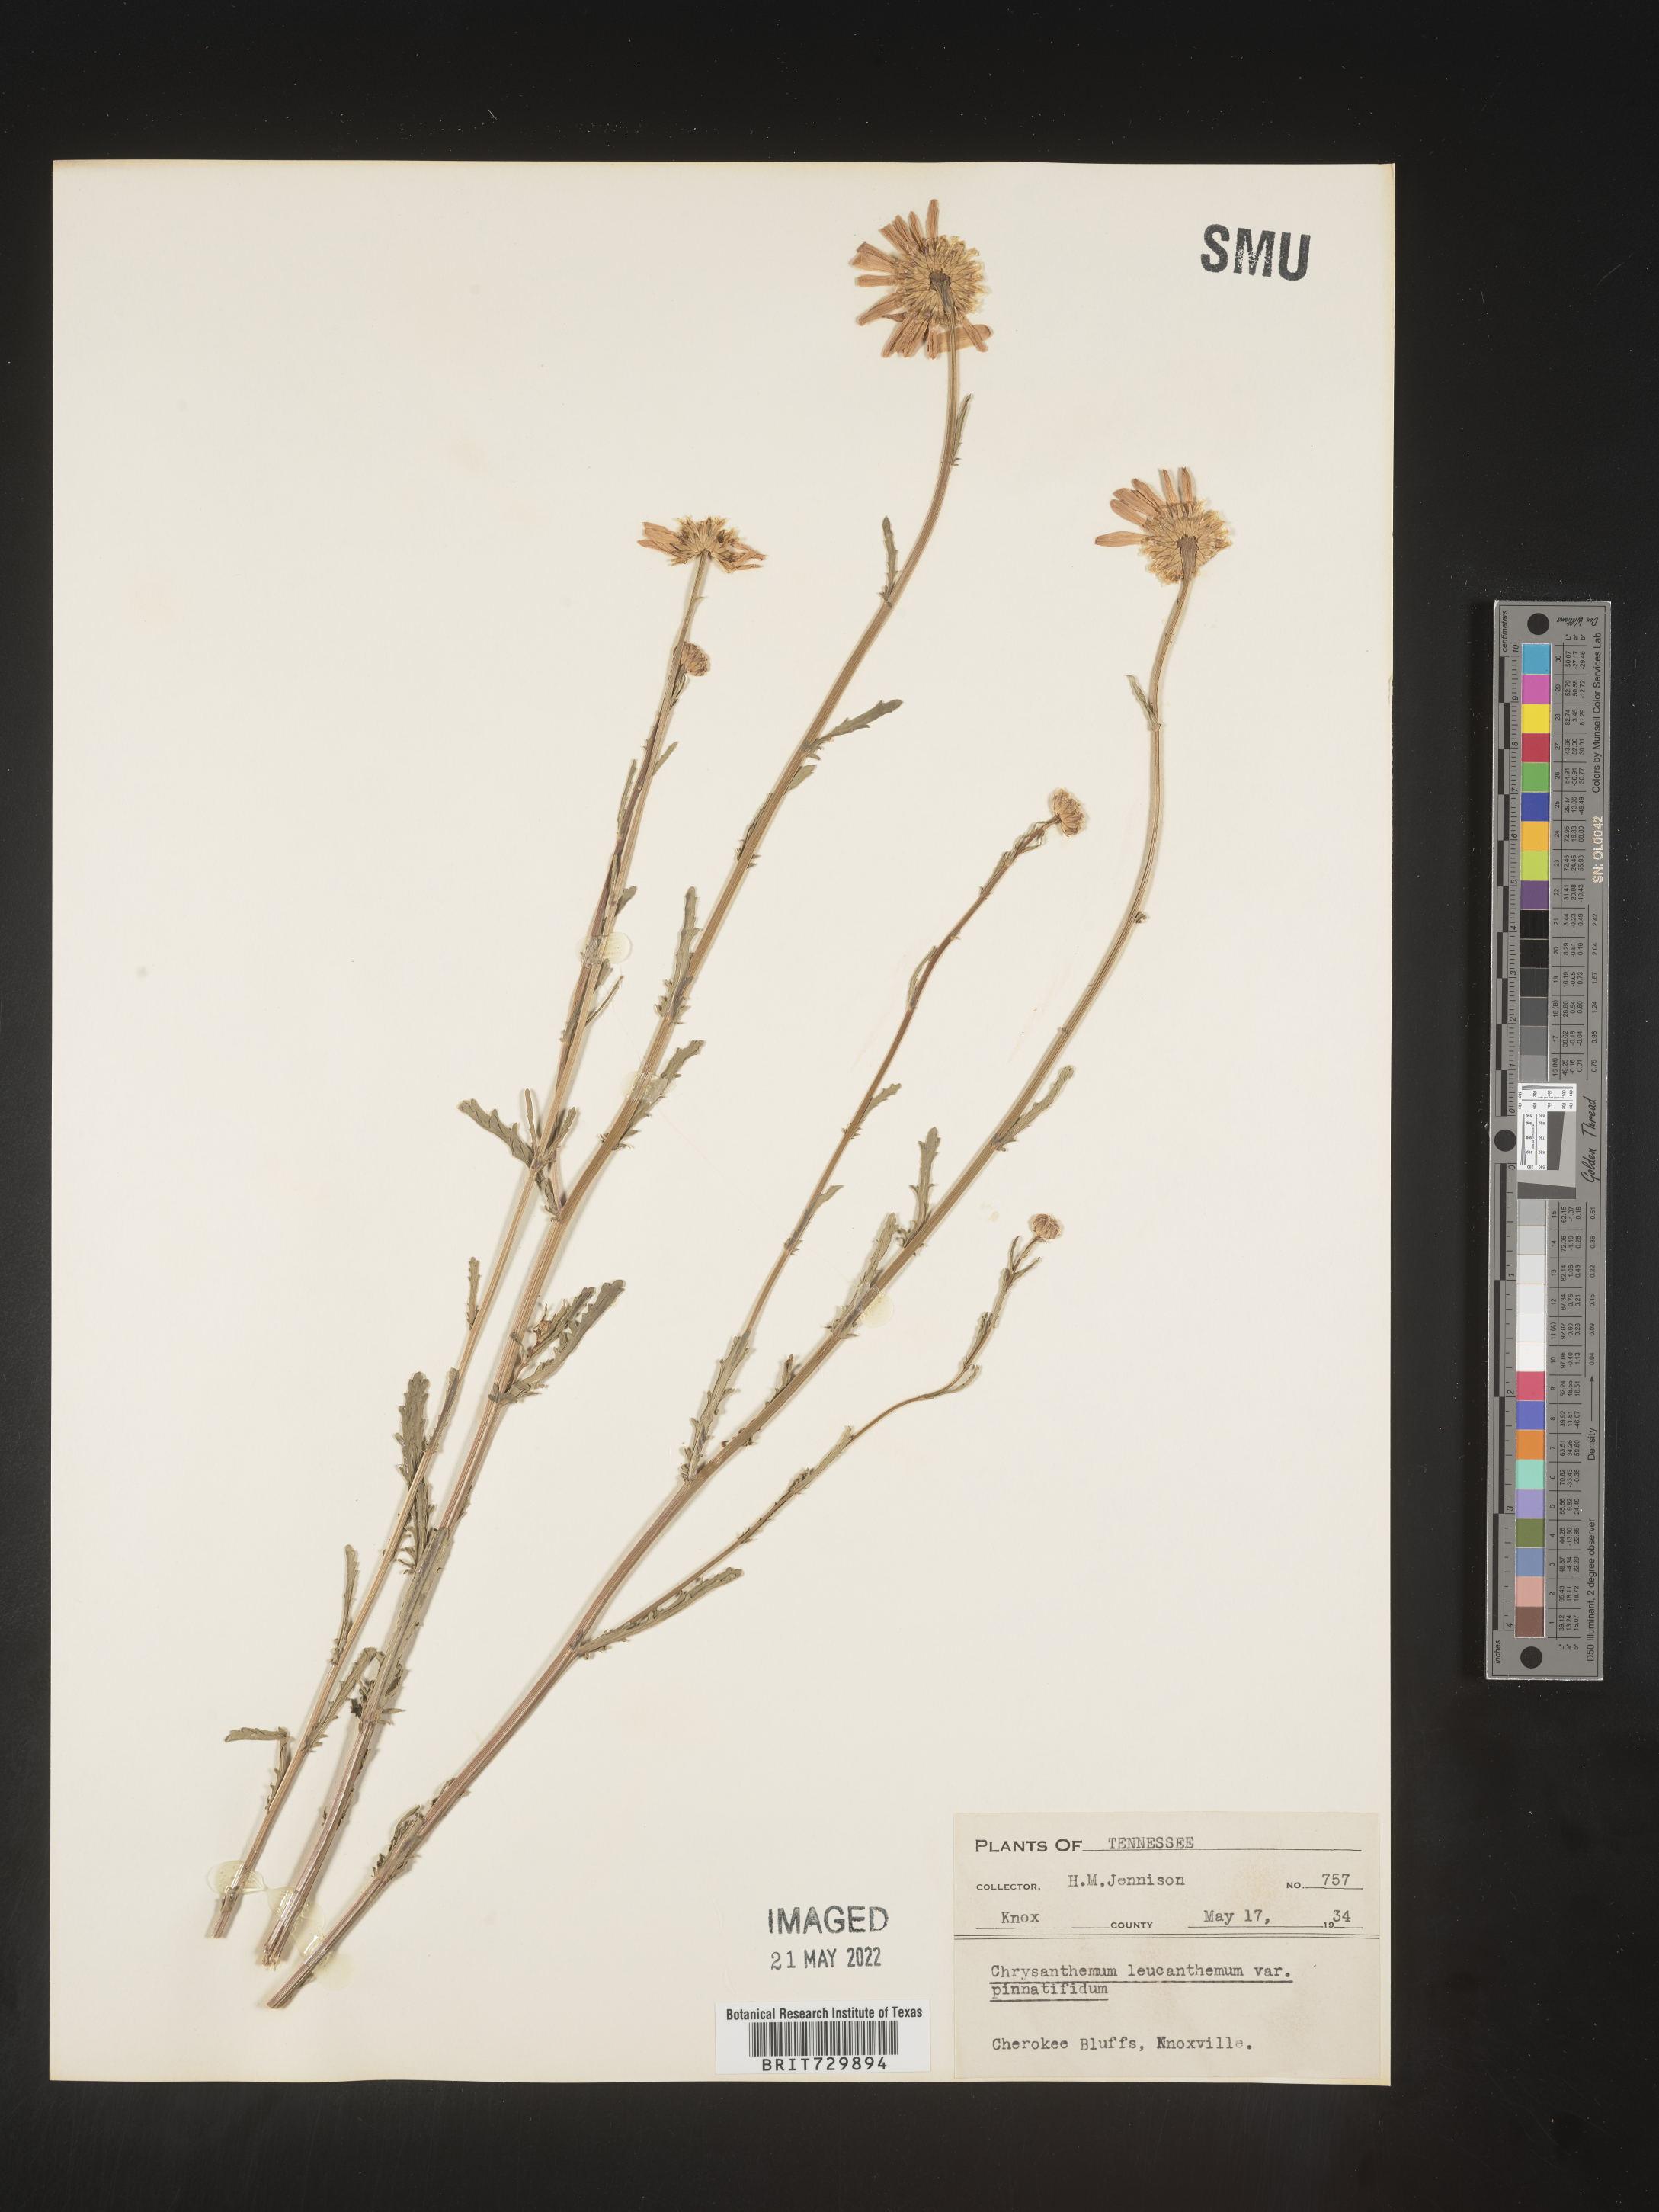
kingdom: Plantae
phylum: Tracheophyta
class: Magnoliopsida
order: Asterales
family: Asteraceae
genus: Leucanthemum
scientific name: Leucanthemum vulgare
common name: Oxeye daisy
